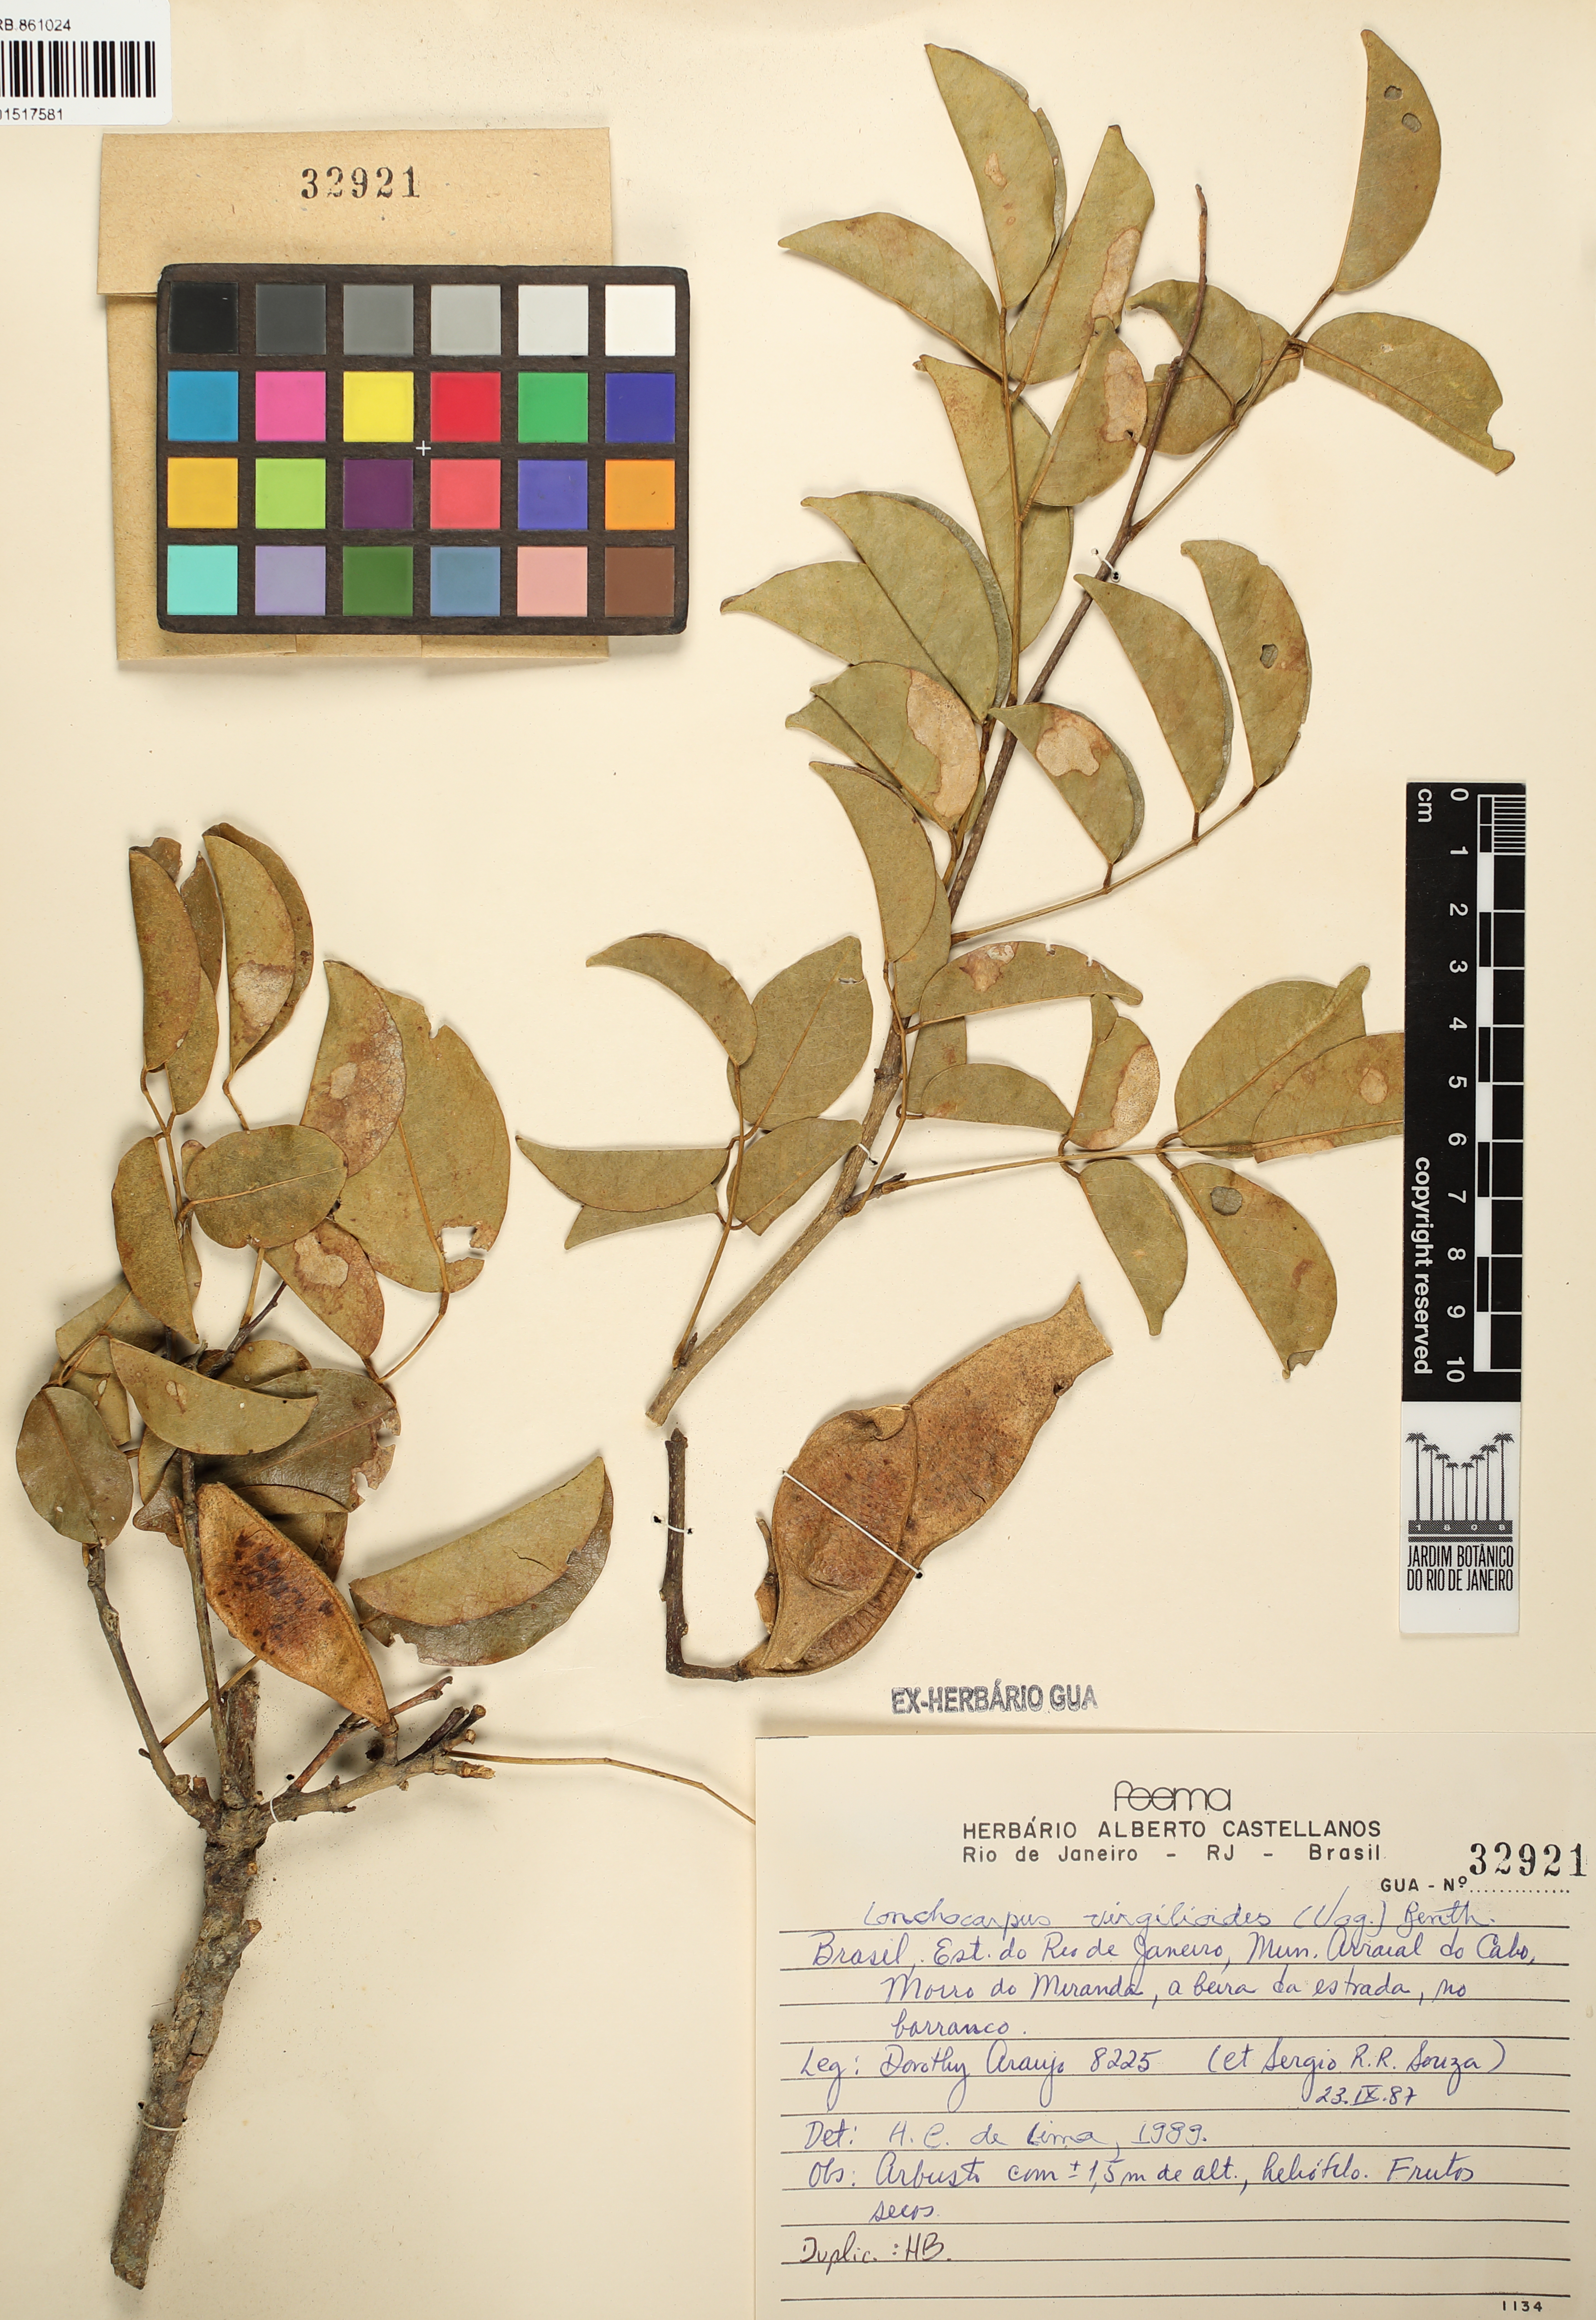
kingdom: Plantae
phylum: Tracheophyta
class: Magnoliopsida
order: Fabales
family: Fabaceae
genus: Muellera
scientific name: Muellera virgilioides
